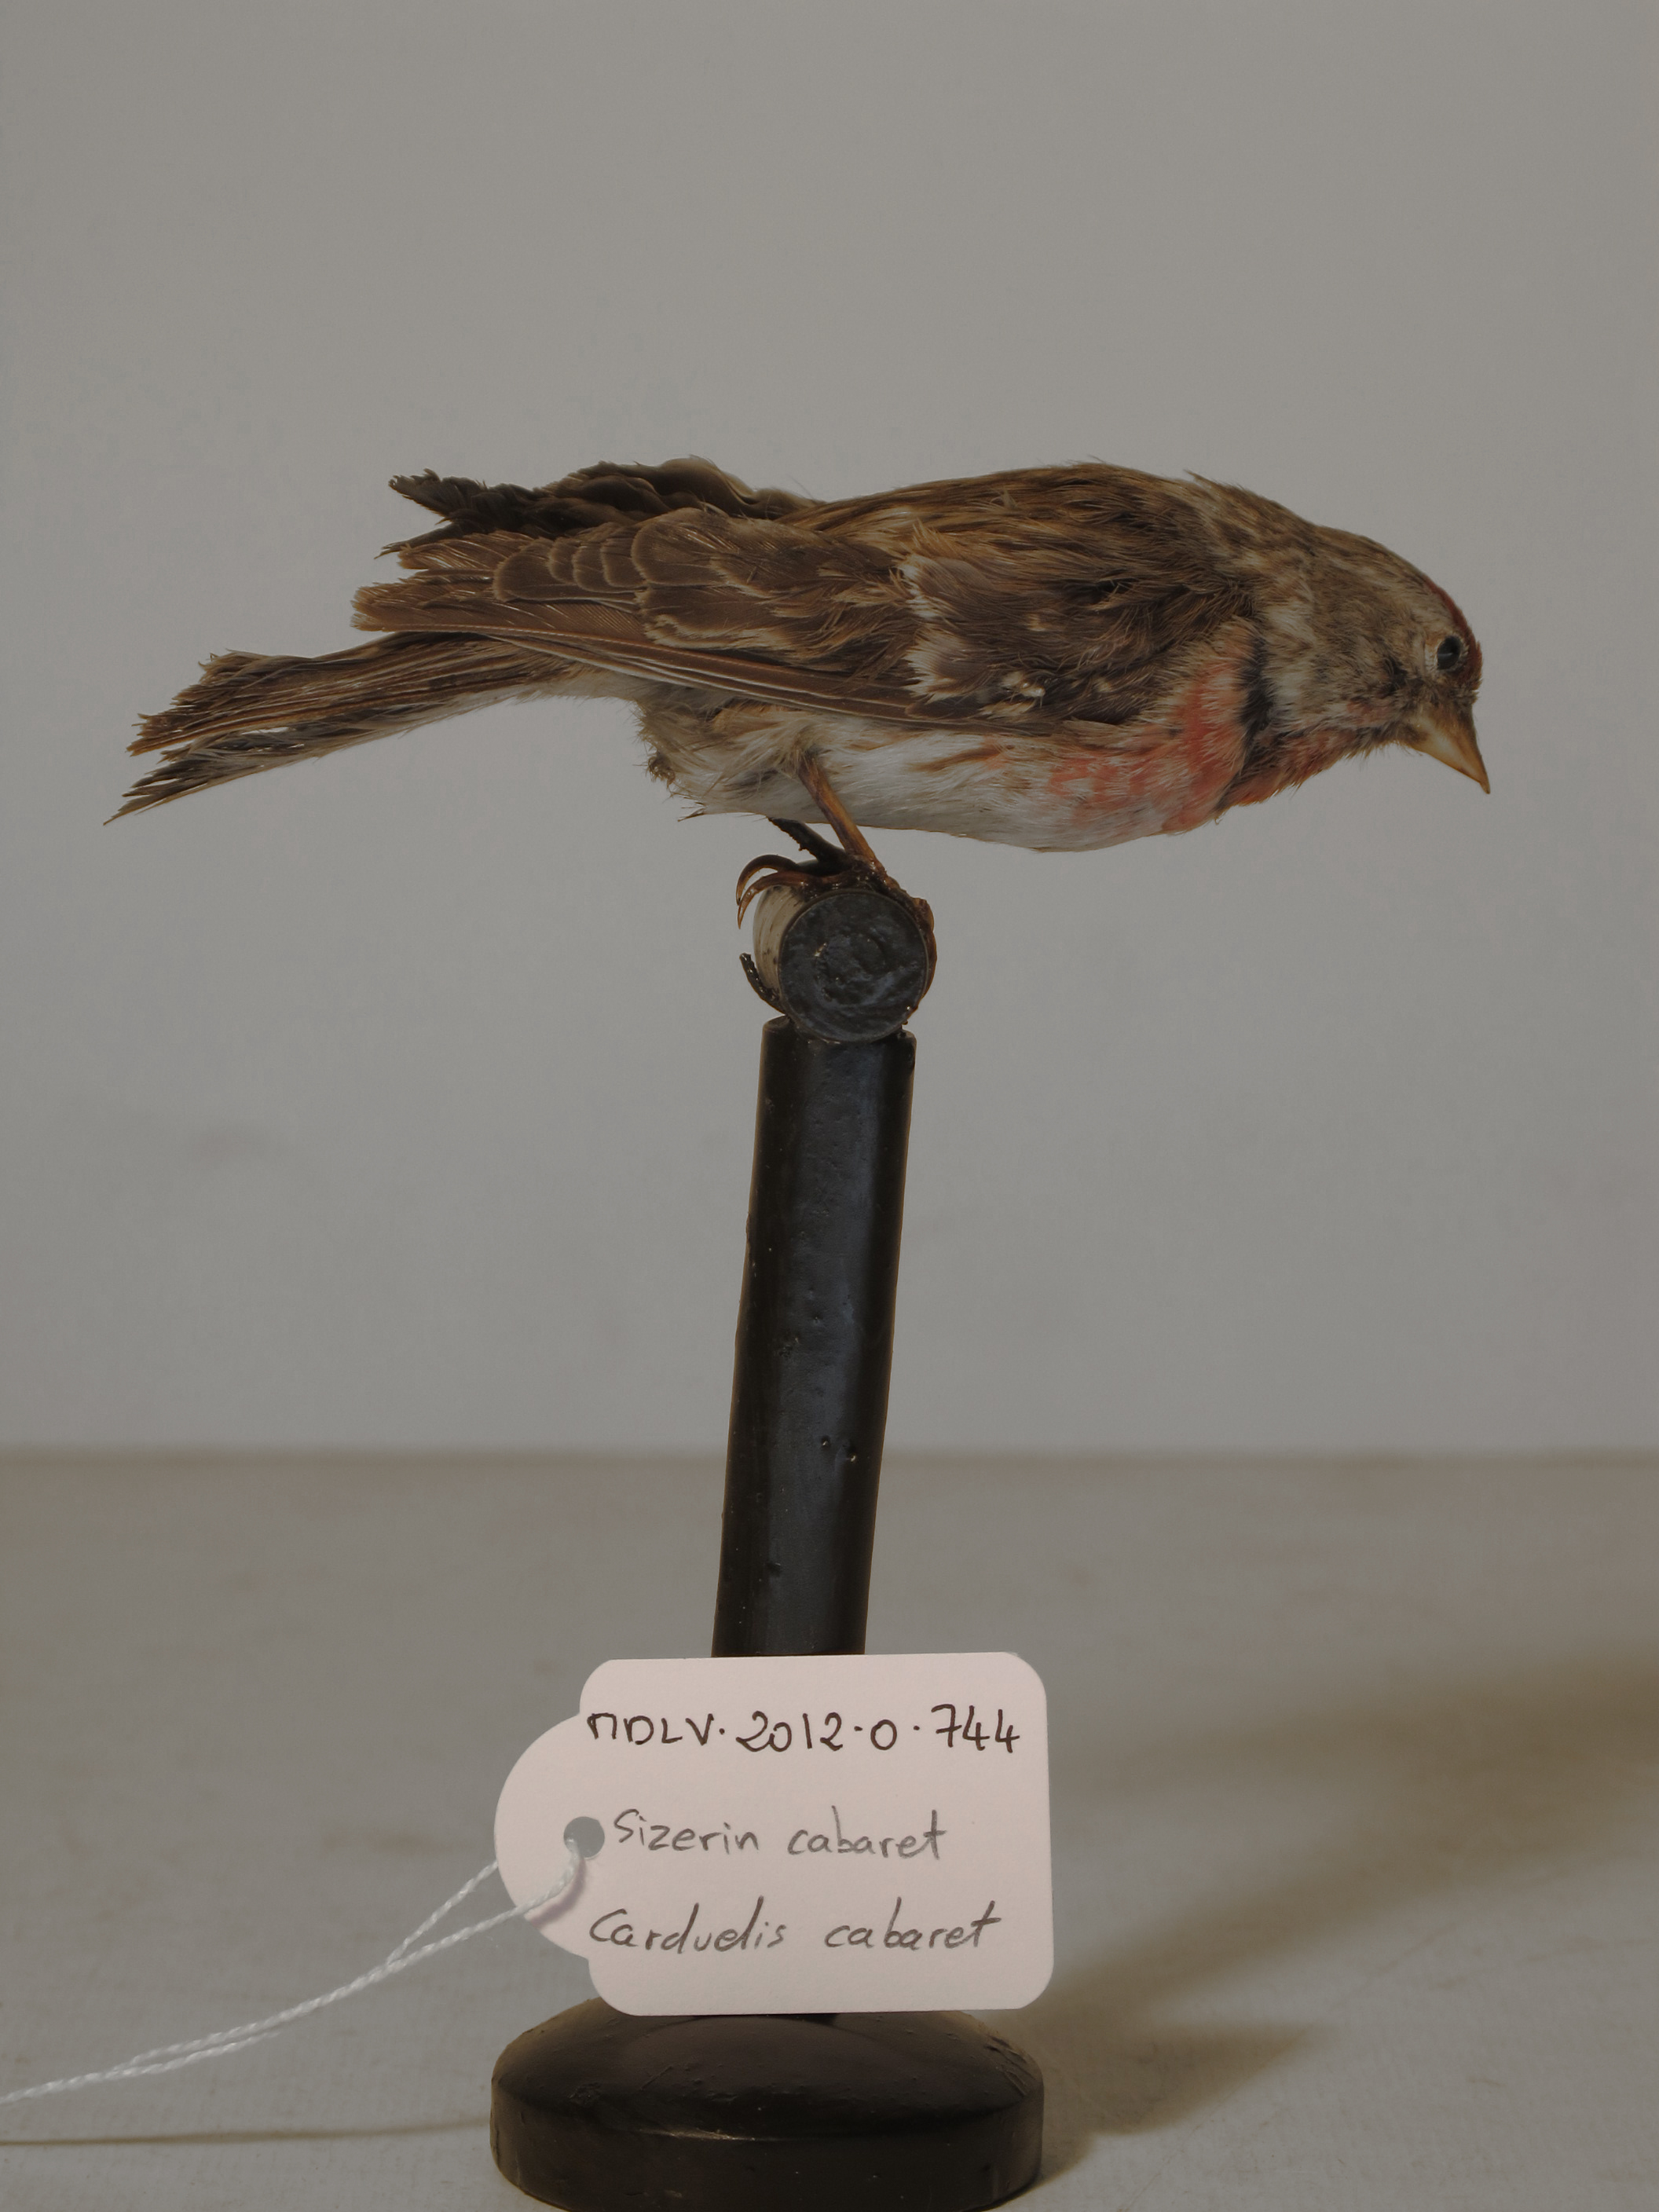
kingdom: Animalia
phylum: Chordata
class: Aves
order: Passeriformes
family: Fringillidae
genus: Acanthis
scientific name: Acanthis flammea
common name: Lesser Redpoll
